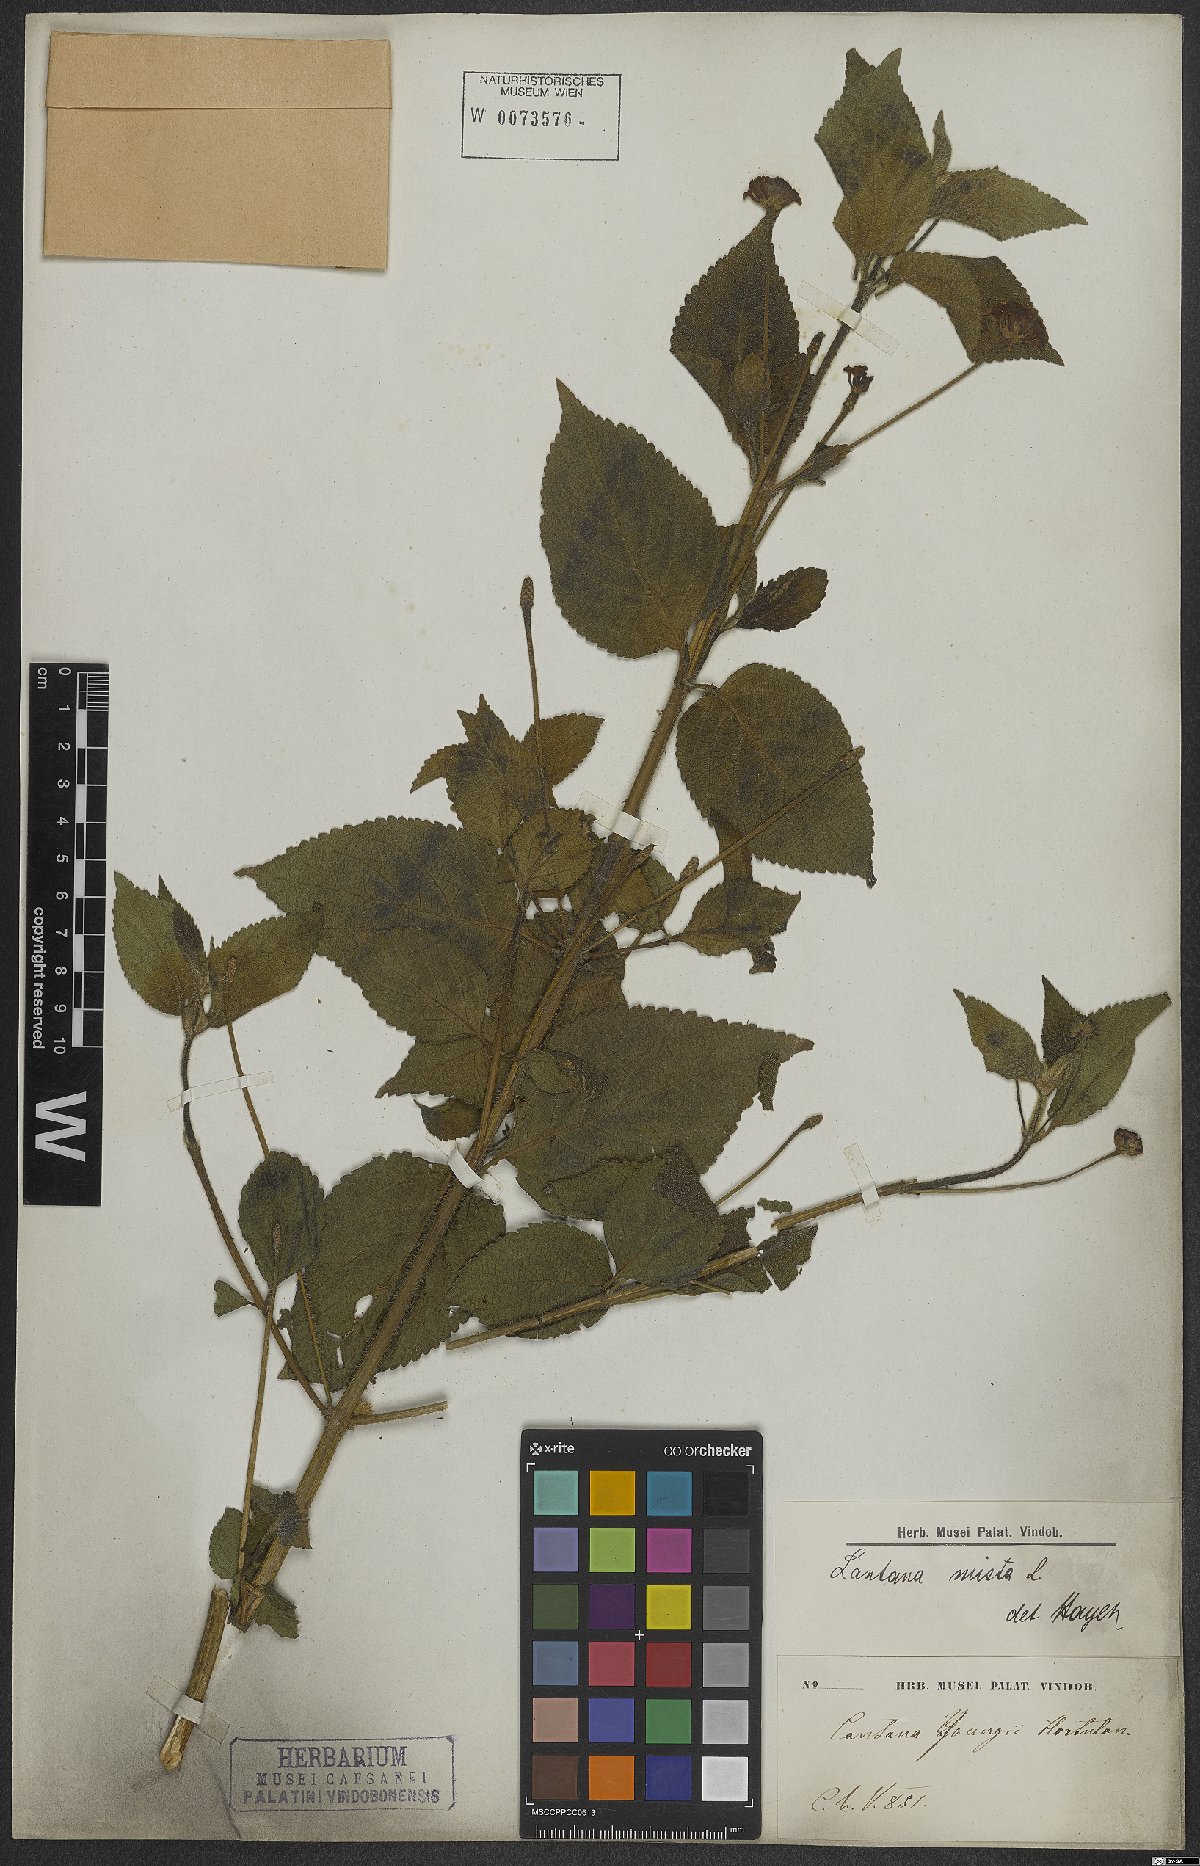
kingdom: Plantae
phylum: Tracheophyta
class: Magnoliopsida
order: Lamiales
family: Verbenaceae
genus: Lantana
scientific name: Lantana mista
